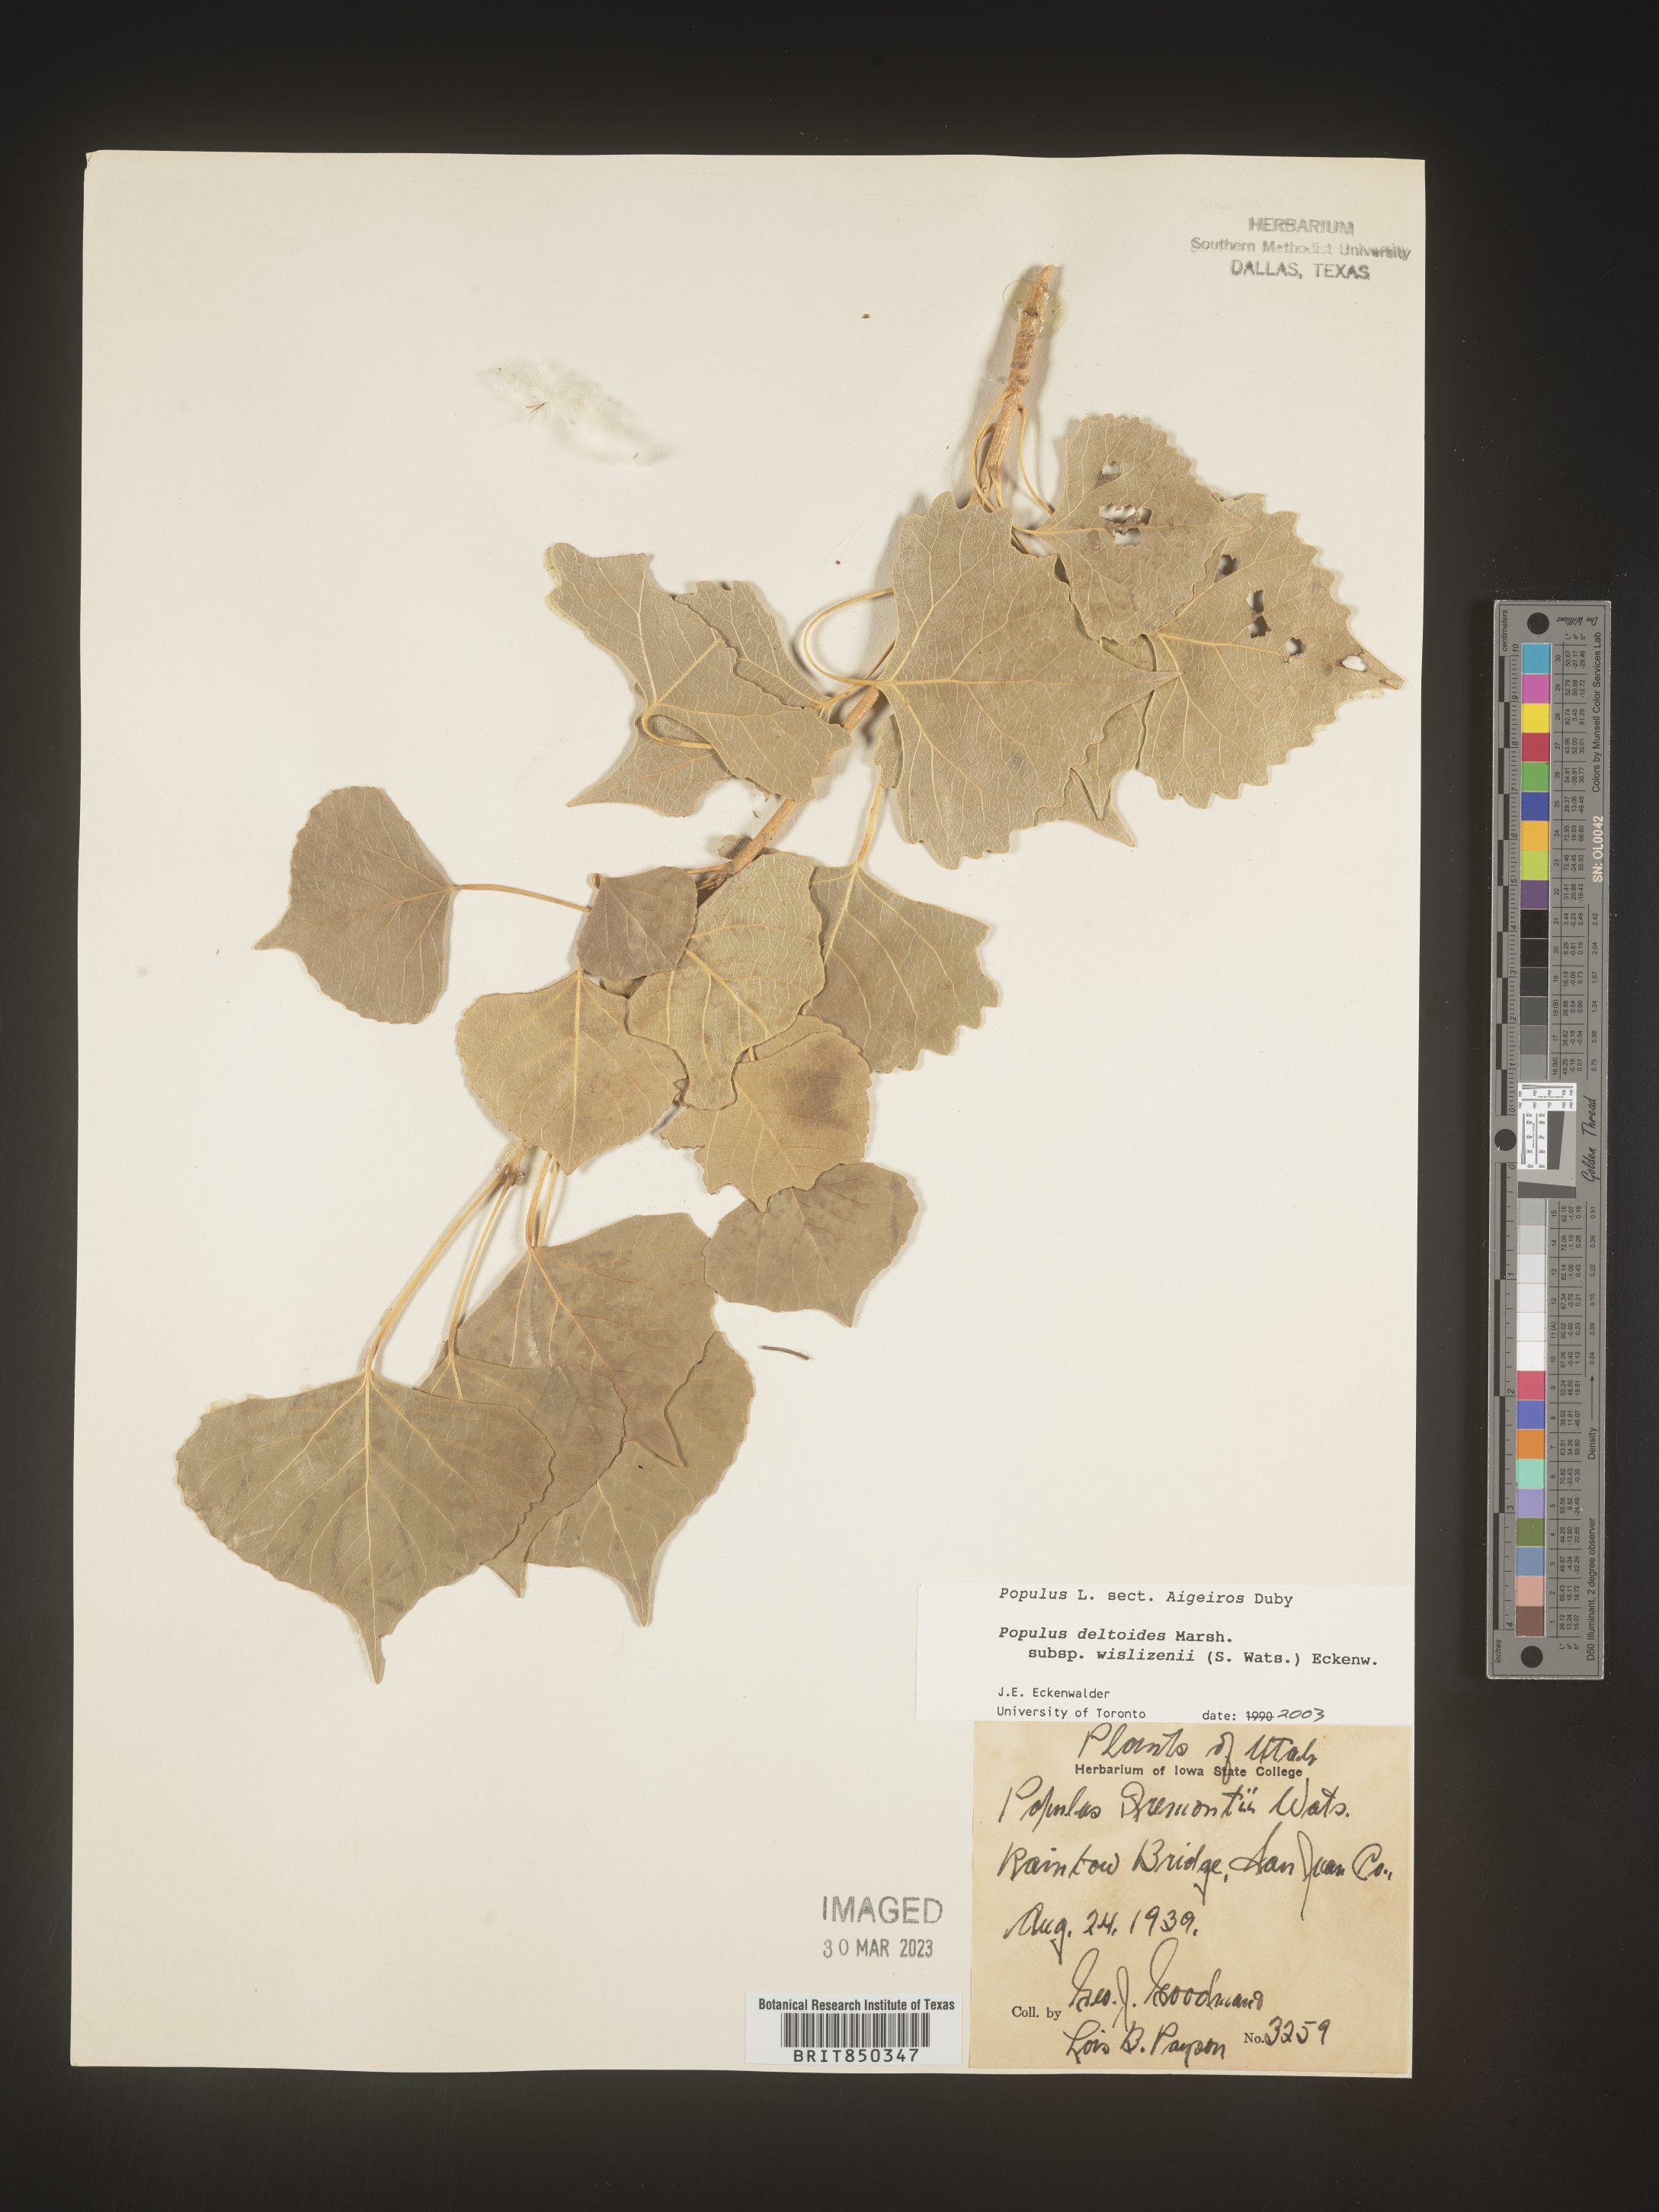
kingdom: Plantae
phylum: Tracheophyta
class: Magnoliopsida
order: Malpighiales
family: Salicaceae
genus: Populus
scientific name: Populus deltoides
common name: Eastern cottonwood
